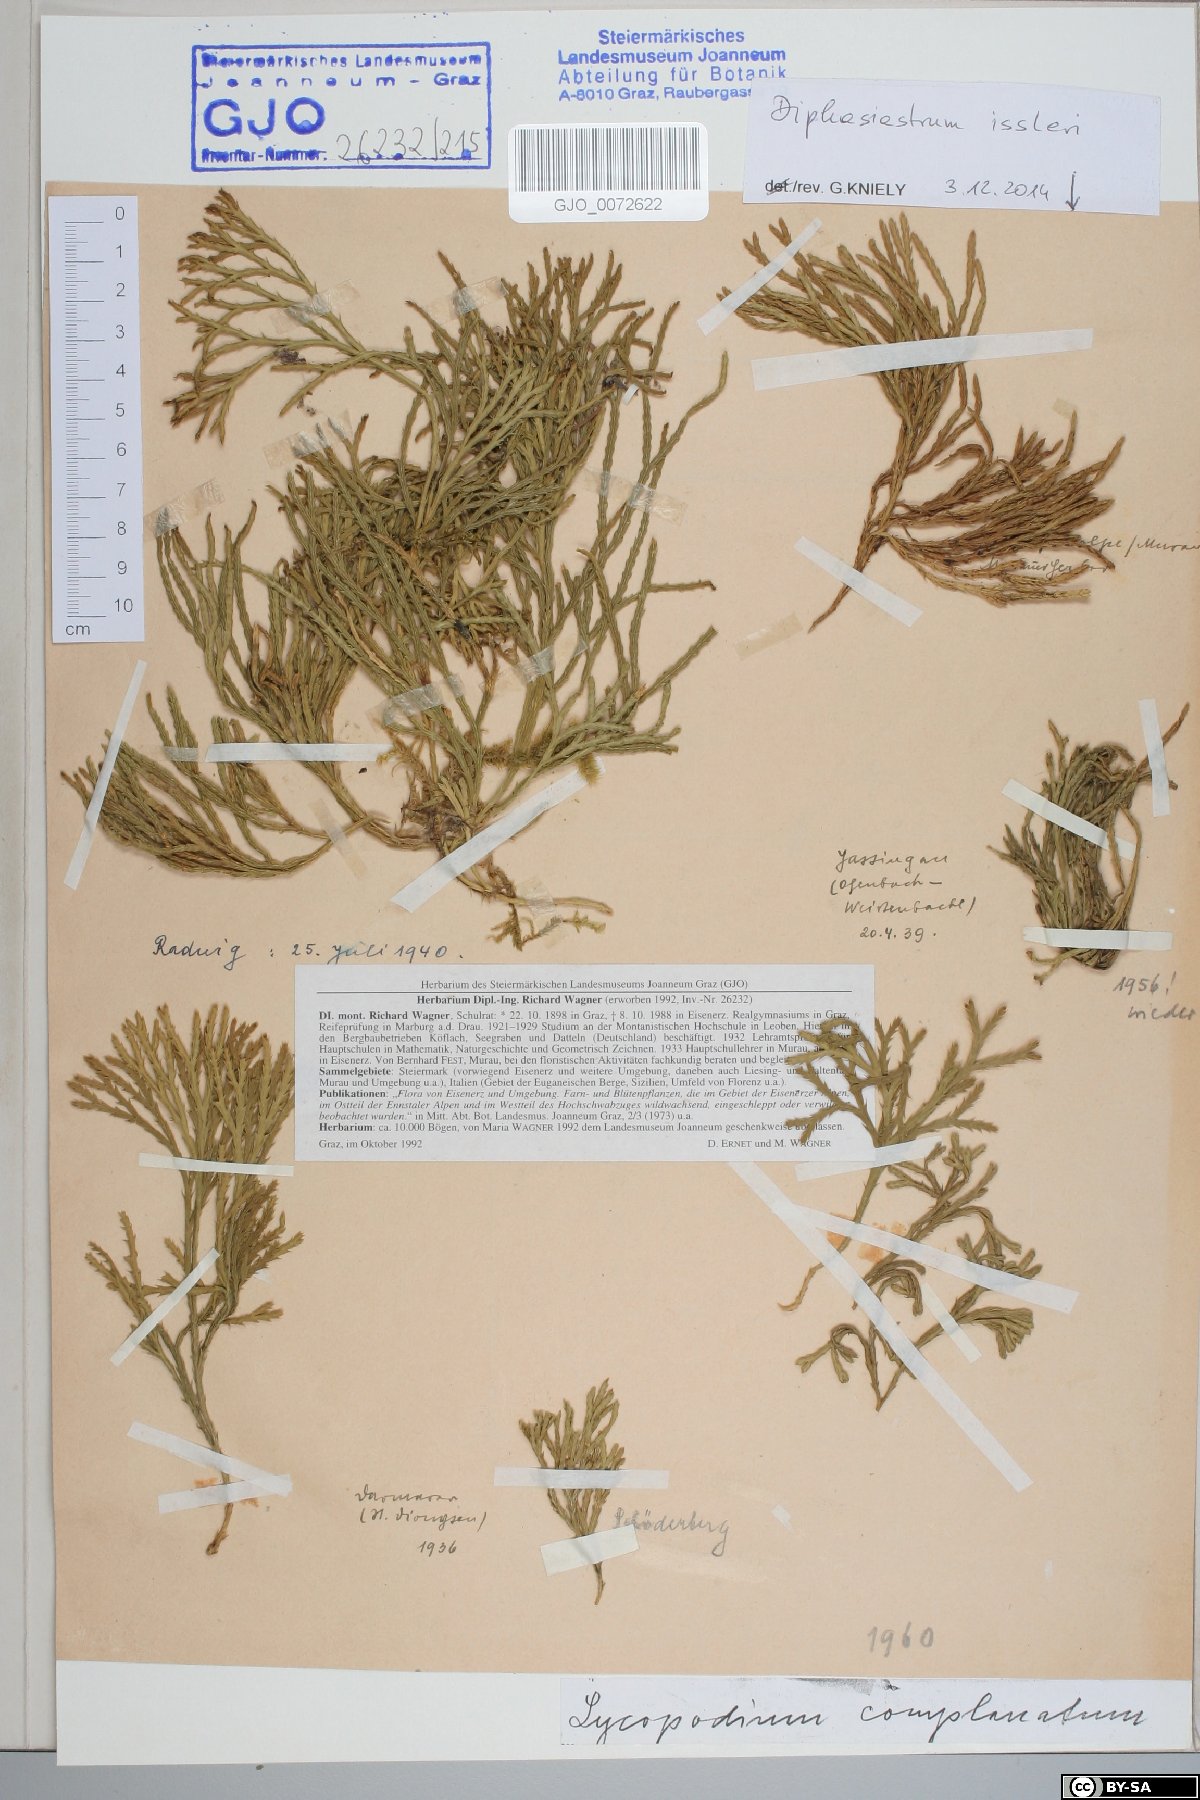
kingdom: Plantae
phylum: Tracheophyta
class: Lycopodiopsida
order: Lycopodiales
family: Lycopodiaceae
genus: Diphasiastrum
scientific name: Diphasiastrum complanatum
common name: Northern running-pine
